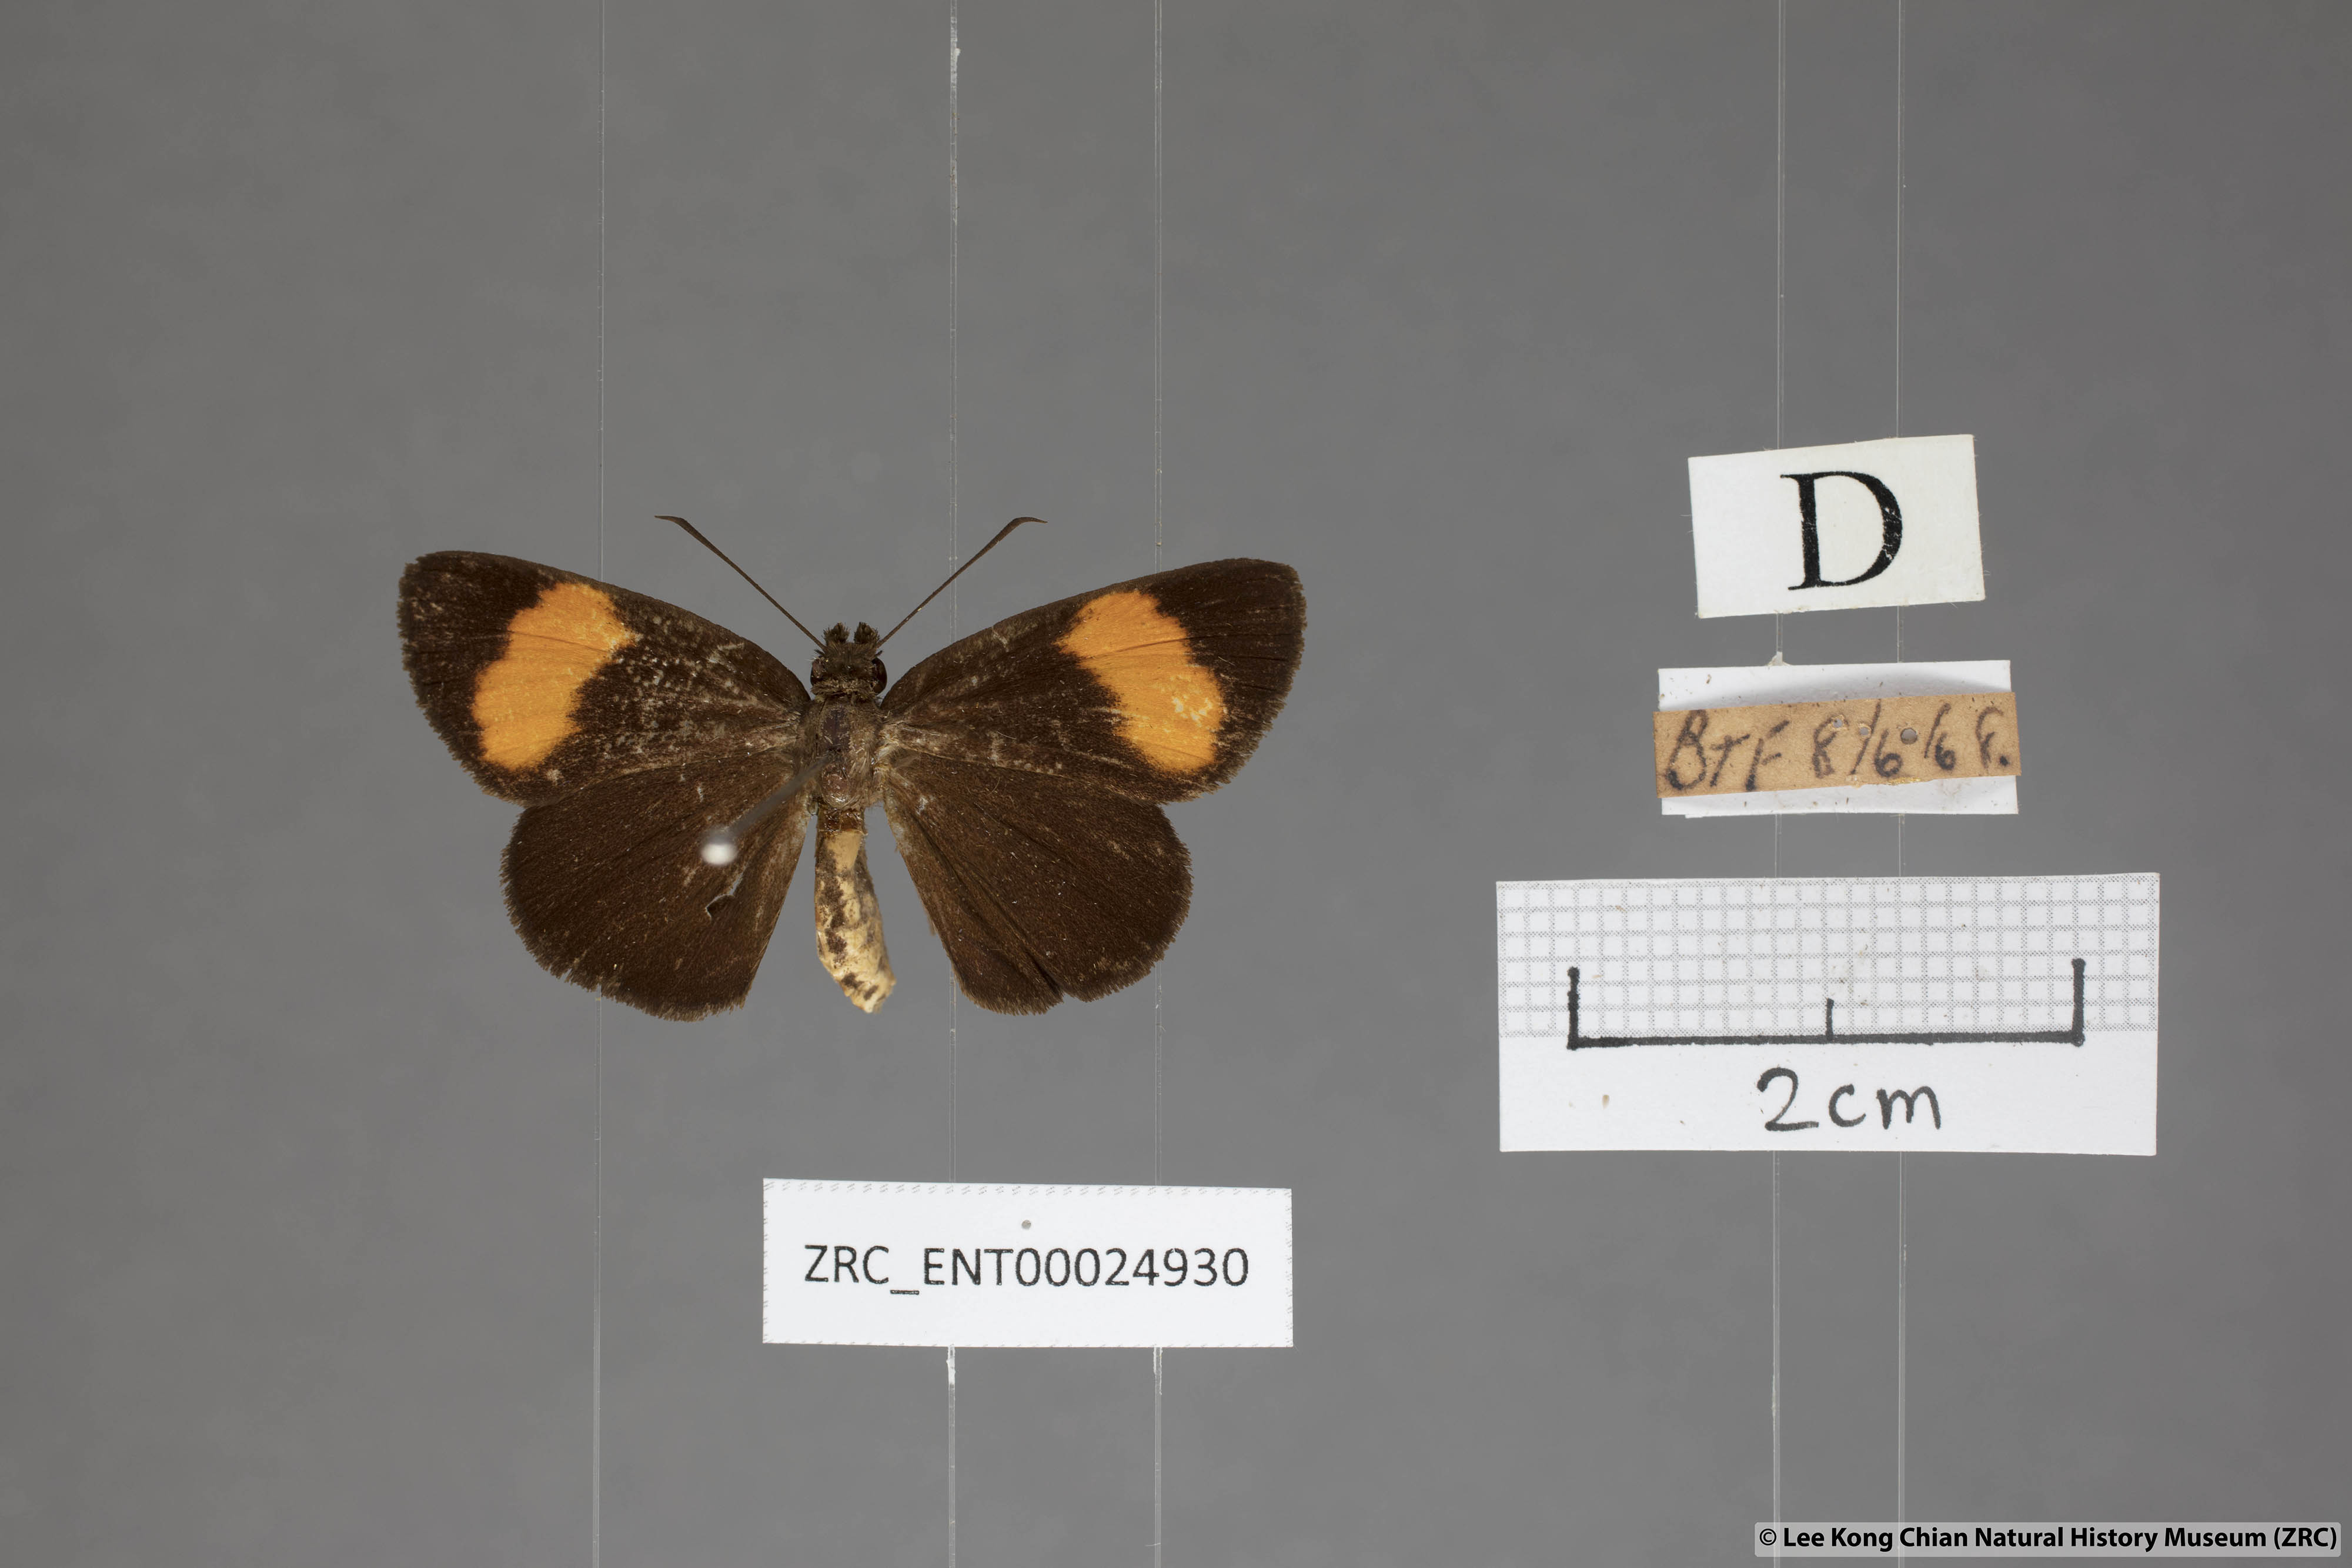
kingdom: Animalia
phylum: Arthropoda
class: Insecta
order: Lepidoptera
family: Hesperiidae
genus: Koruthaialos
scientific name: Koruthaialos rubecula
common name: Narrow-banded velvet bob
